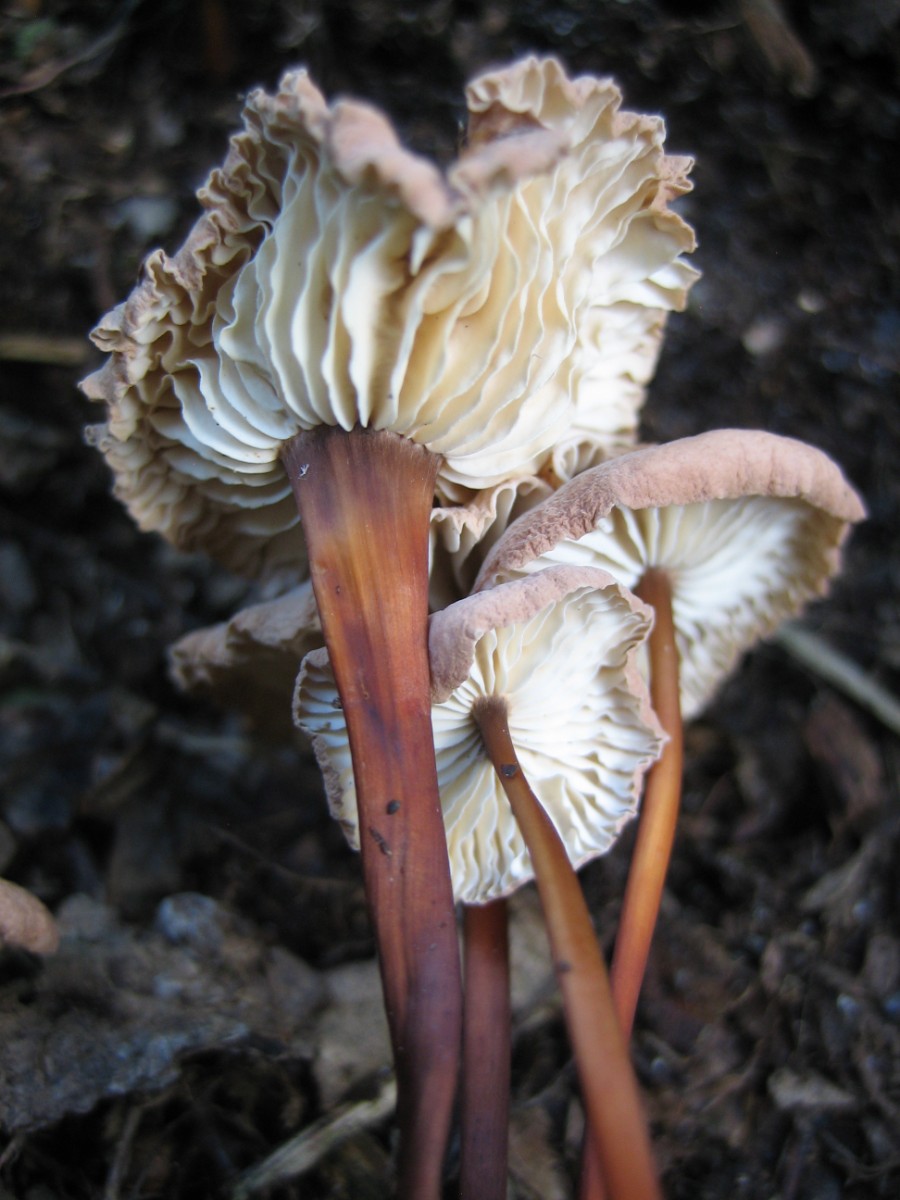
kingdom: Fungi
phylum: Basidiomycota
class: Agaricomycetes
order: Agaricales
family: Omphalotaceae
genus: Mycetinis
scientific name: Mycetinis scorodonius
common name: lille løghat
